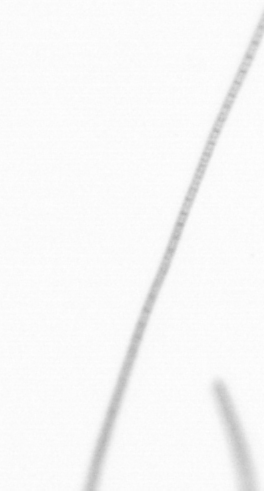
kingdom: Chromista
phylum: Ochrophyta
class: Bacillariophyceae
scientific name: Bacillariophyceae
